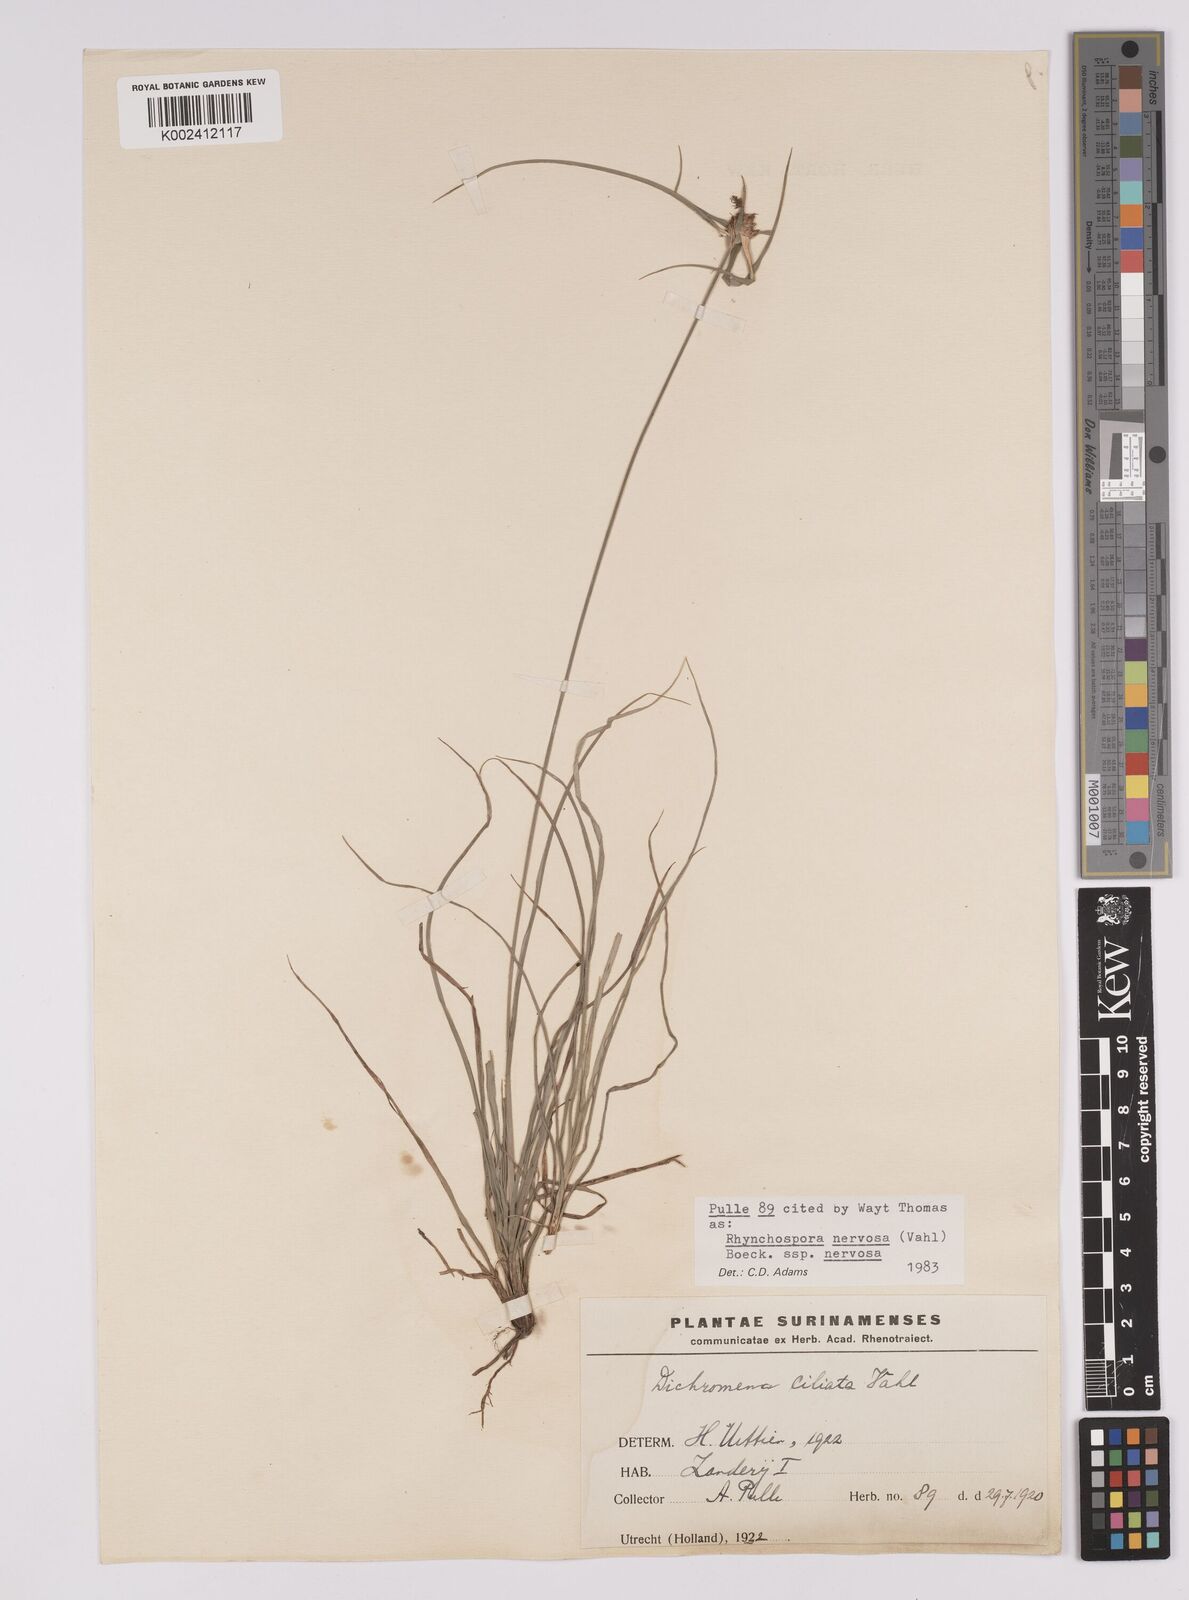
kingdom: Plantae
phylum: Tracheophyta
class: Liliopsida
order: Poales
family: Cyperaceae
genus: Rhynchospora
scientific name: Rhynchospora nervosa
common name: Star sedge
